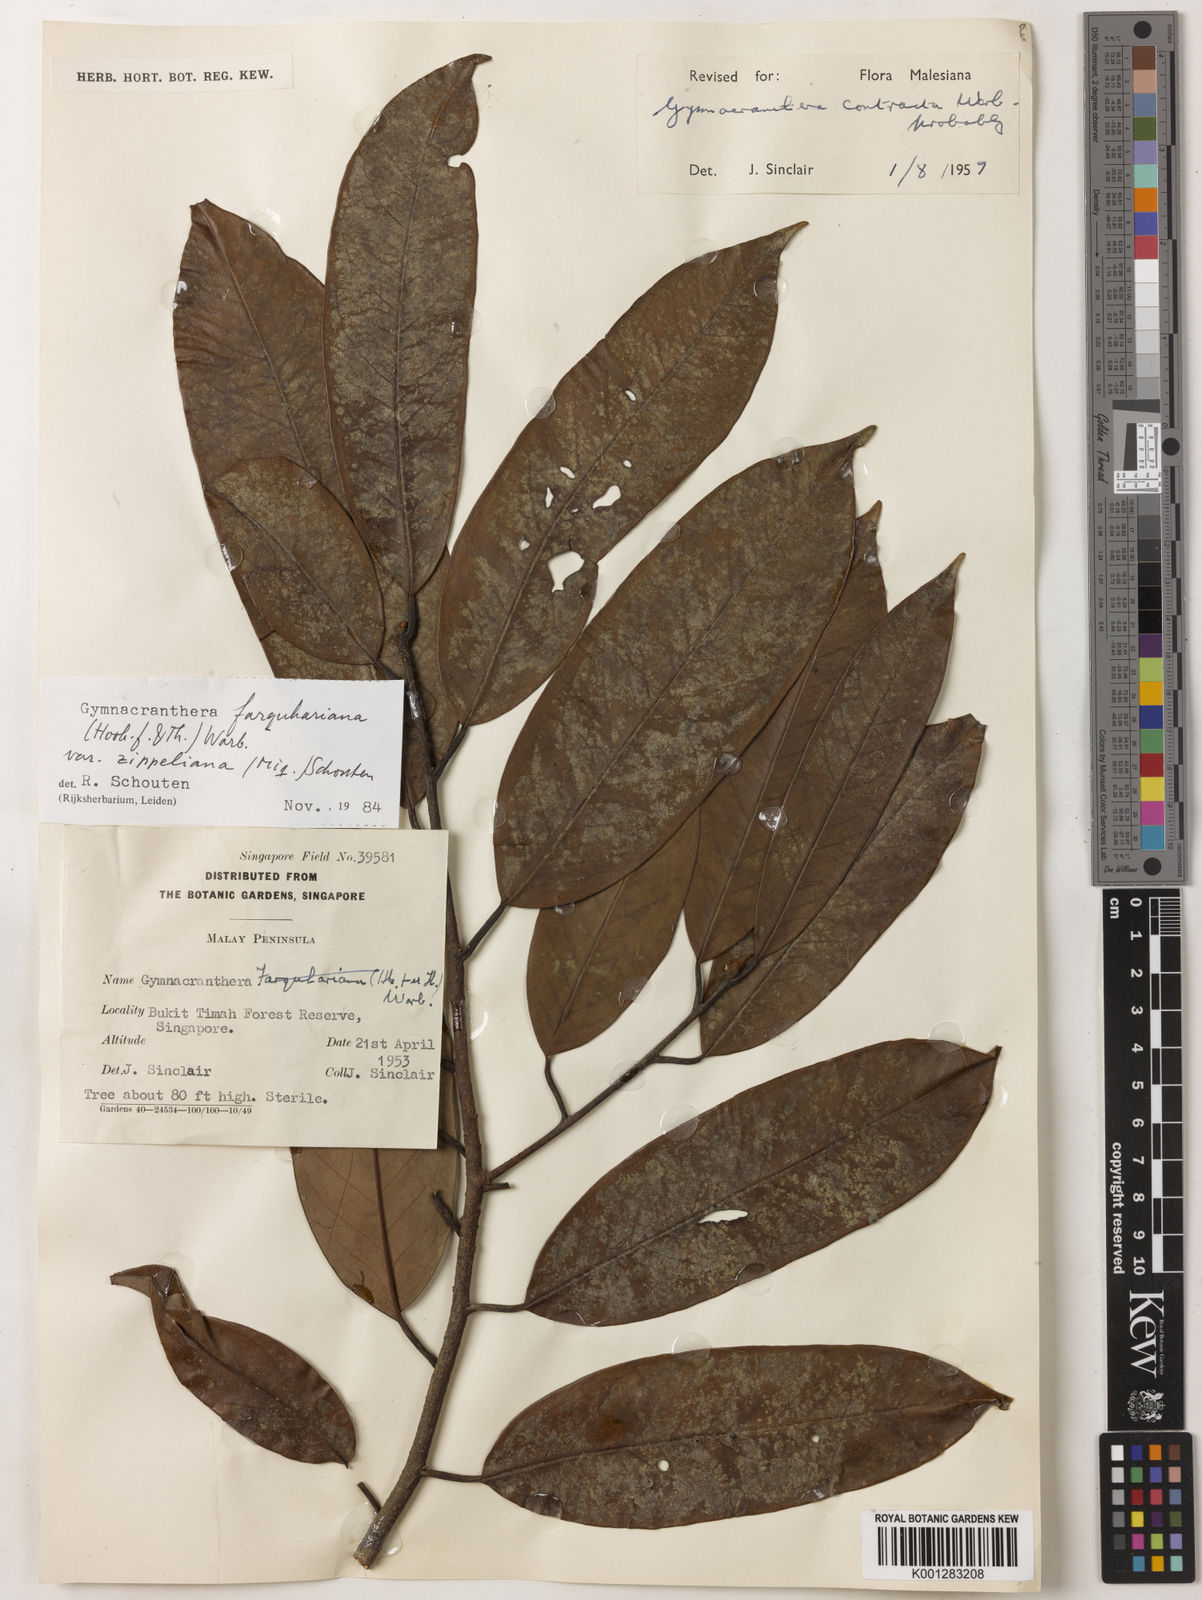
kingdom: Plantae
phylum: Tracheophyta
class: Magnoliopsida
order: Magnoliales
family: Myristicaceae
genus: Gymnacranthera
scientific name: Gymnacranthera farquhariana
